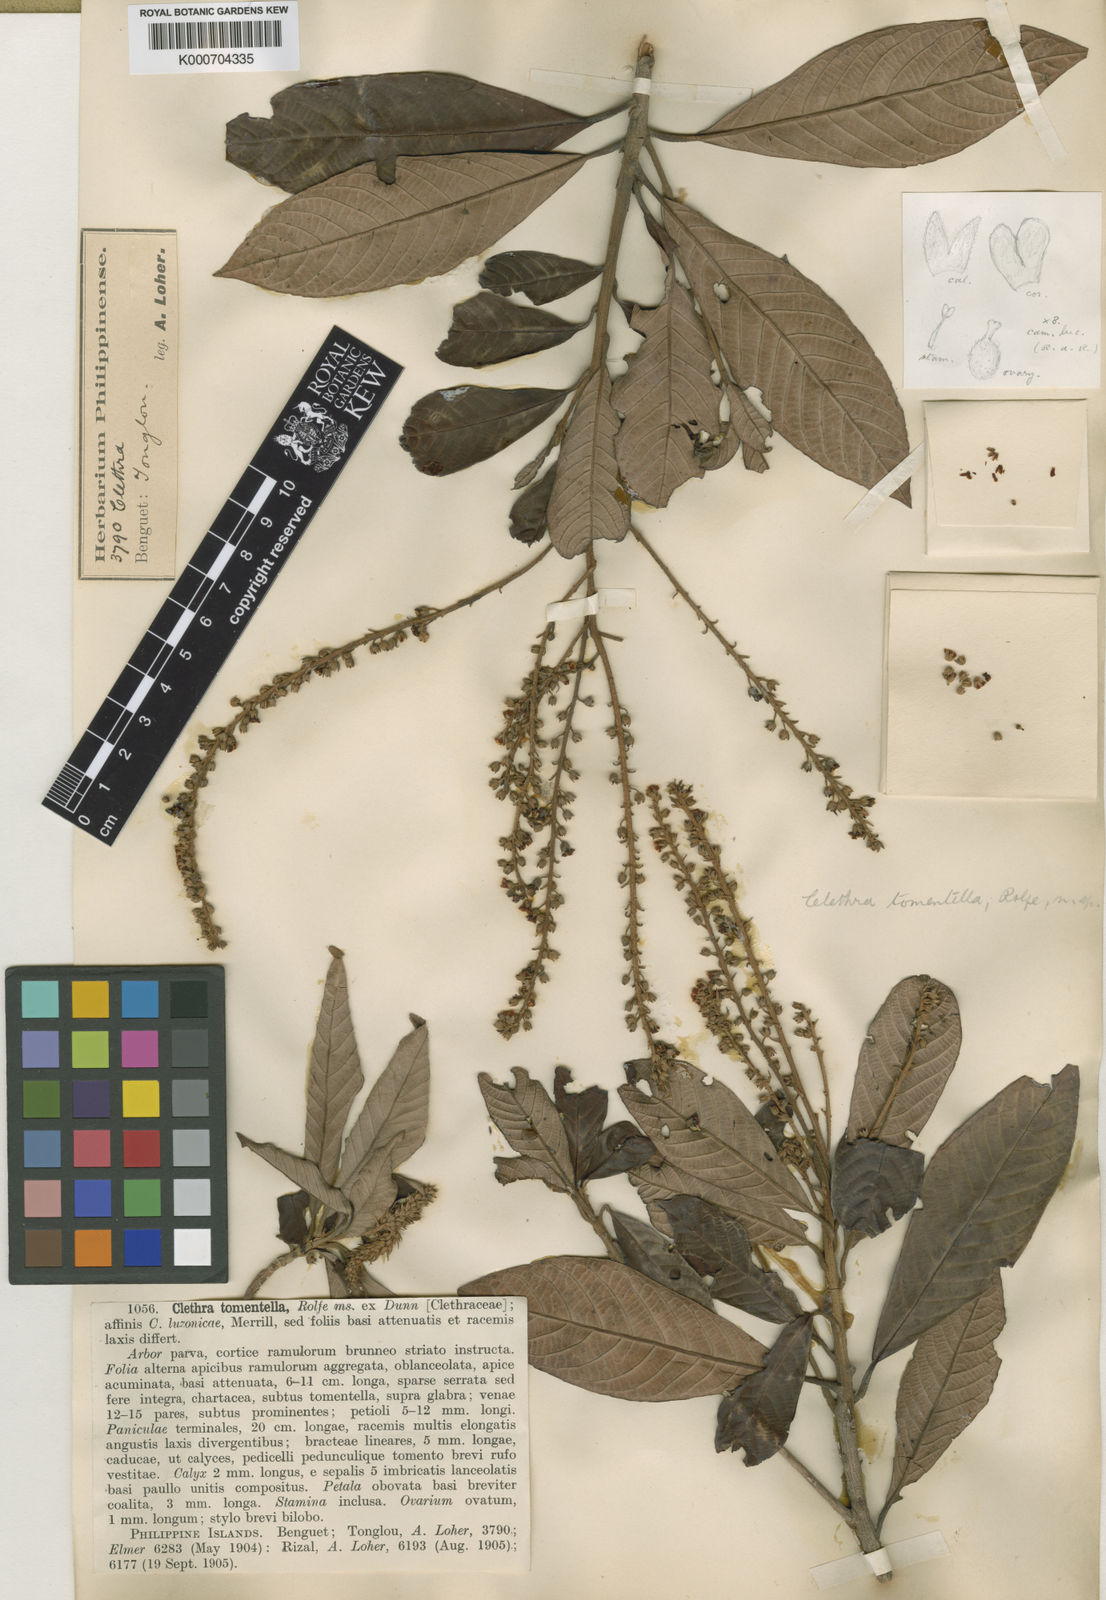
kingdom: Plantae
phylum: Tracheophyta
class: Magnoliopsida
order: Ericales
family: Clethraceae
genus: Clethra
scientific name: Clethra tomentella
